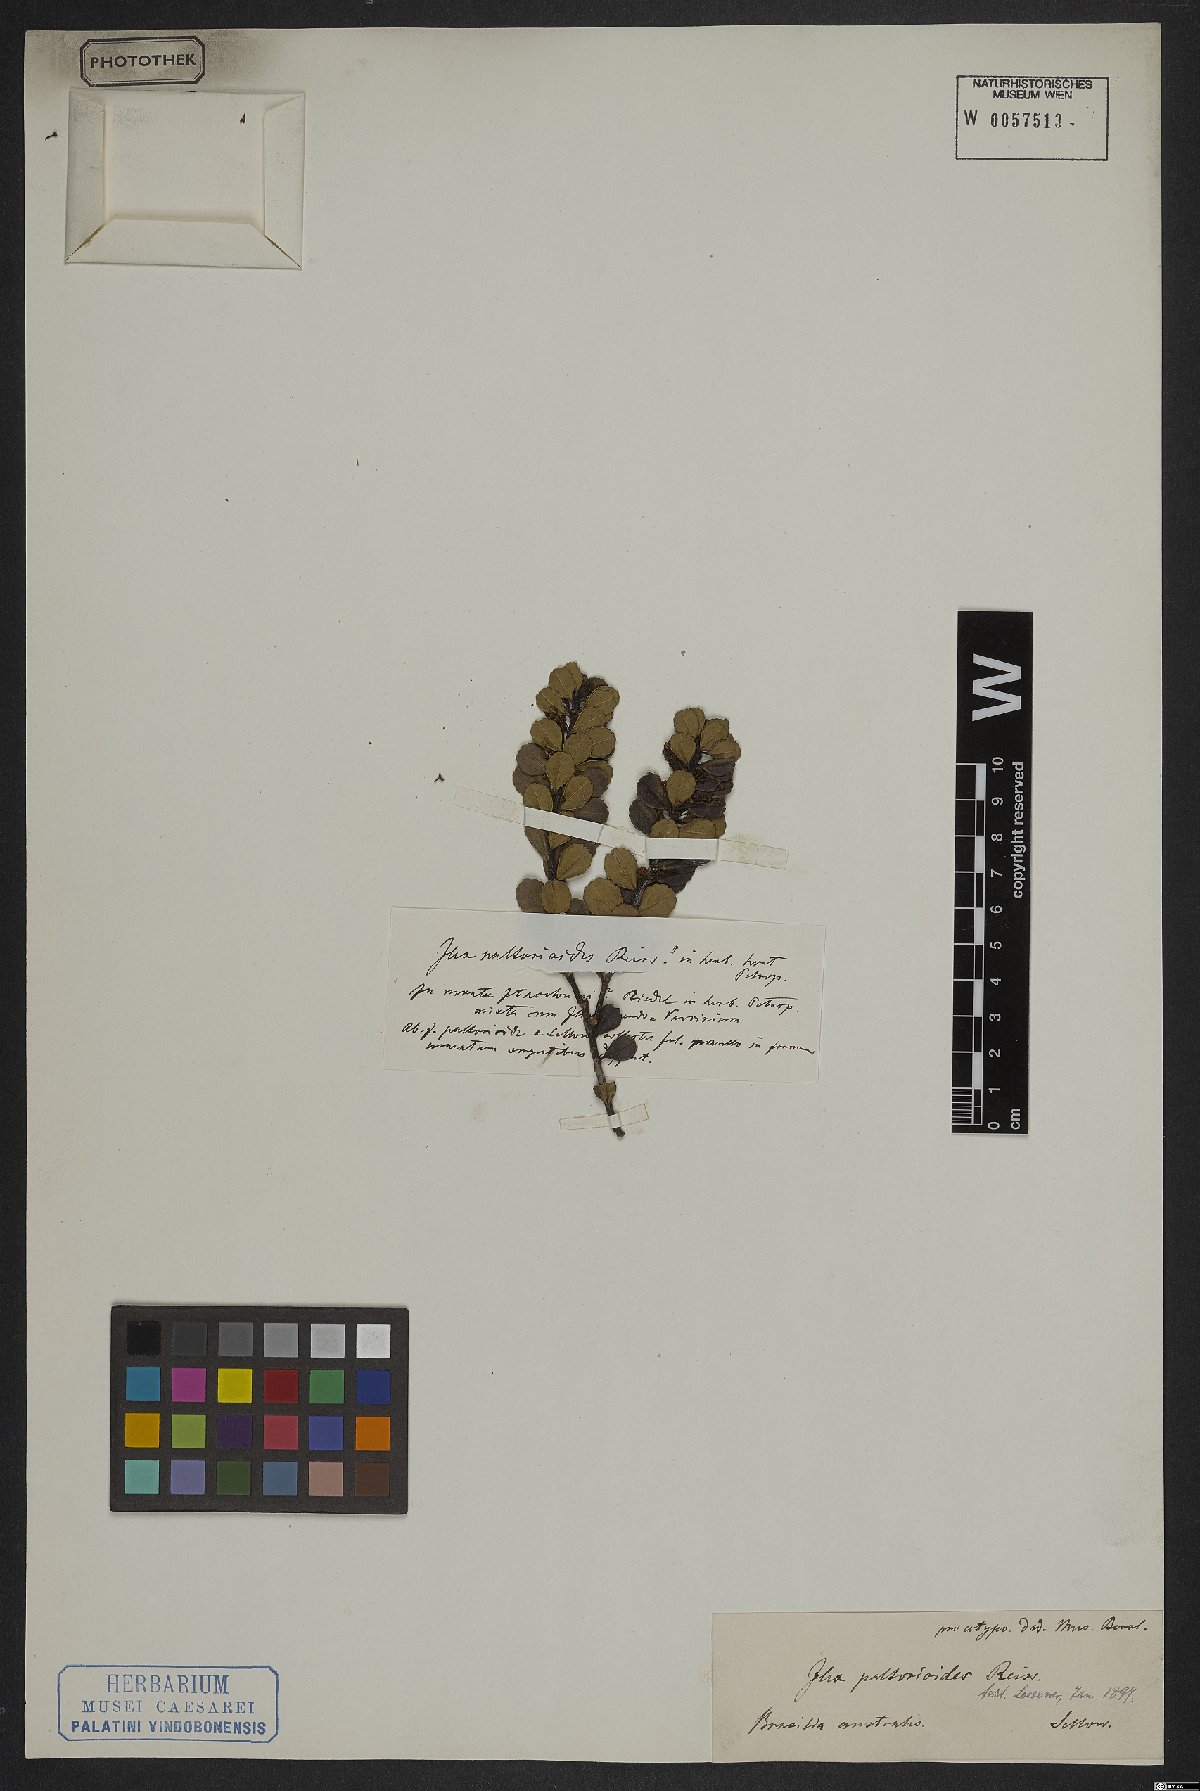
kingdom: Plantae
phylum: Tracheophyta
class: Magnoliopsida
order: Aquifoliales
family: Aquifoliaceae
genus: Ilex
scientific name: Ilex paltorioides
